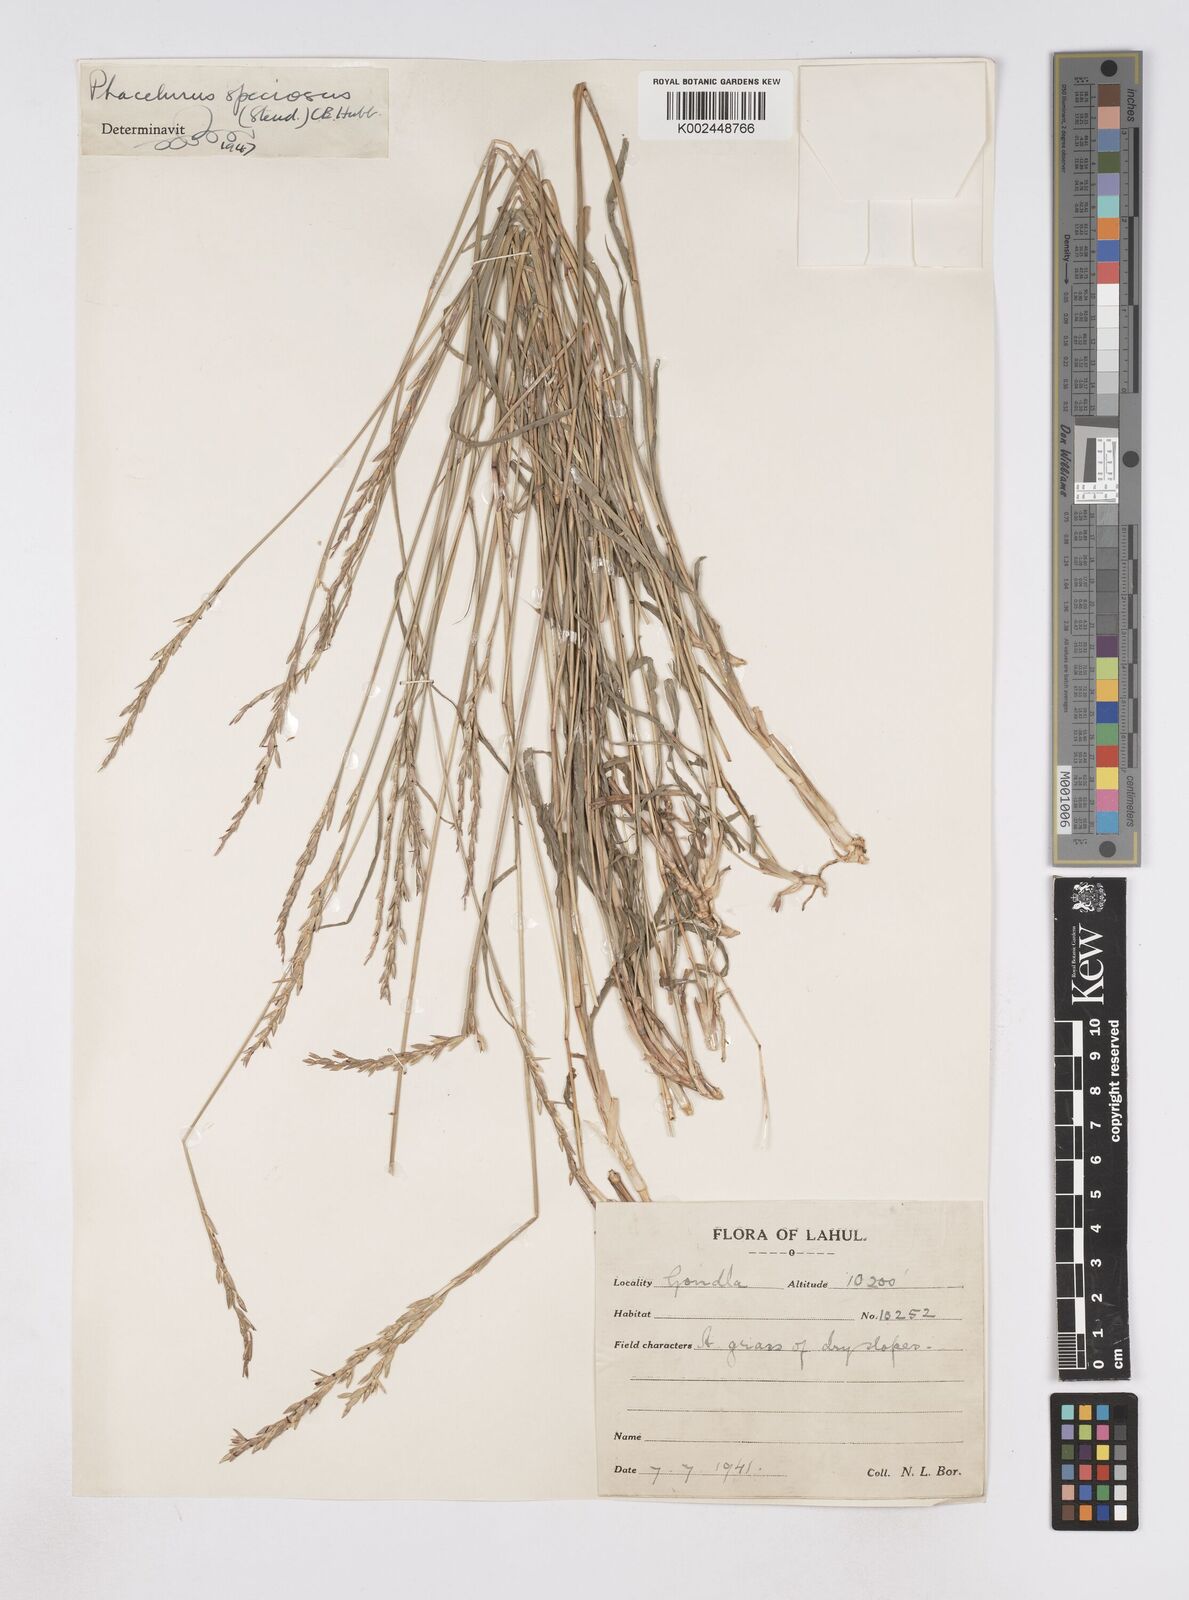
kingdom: Plantae
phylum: Tracheophyta
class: Liliopsida
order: Poales
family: Poaceae
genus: Phacelurus
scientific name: Phacelurus speciosus
